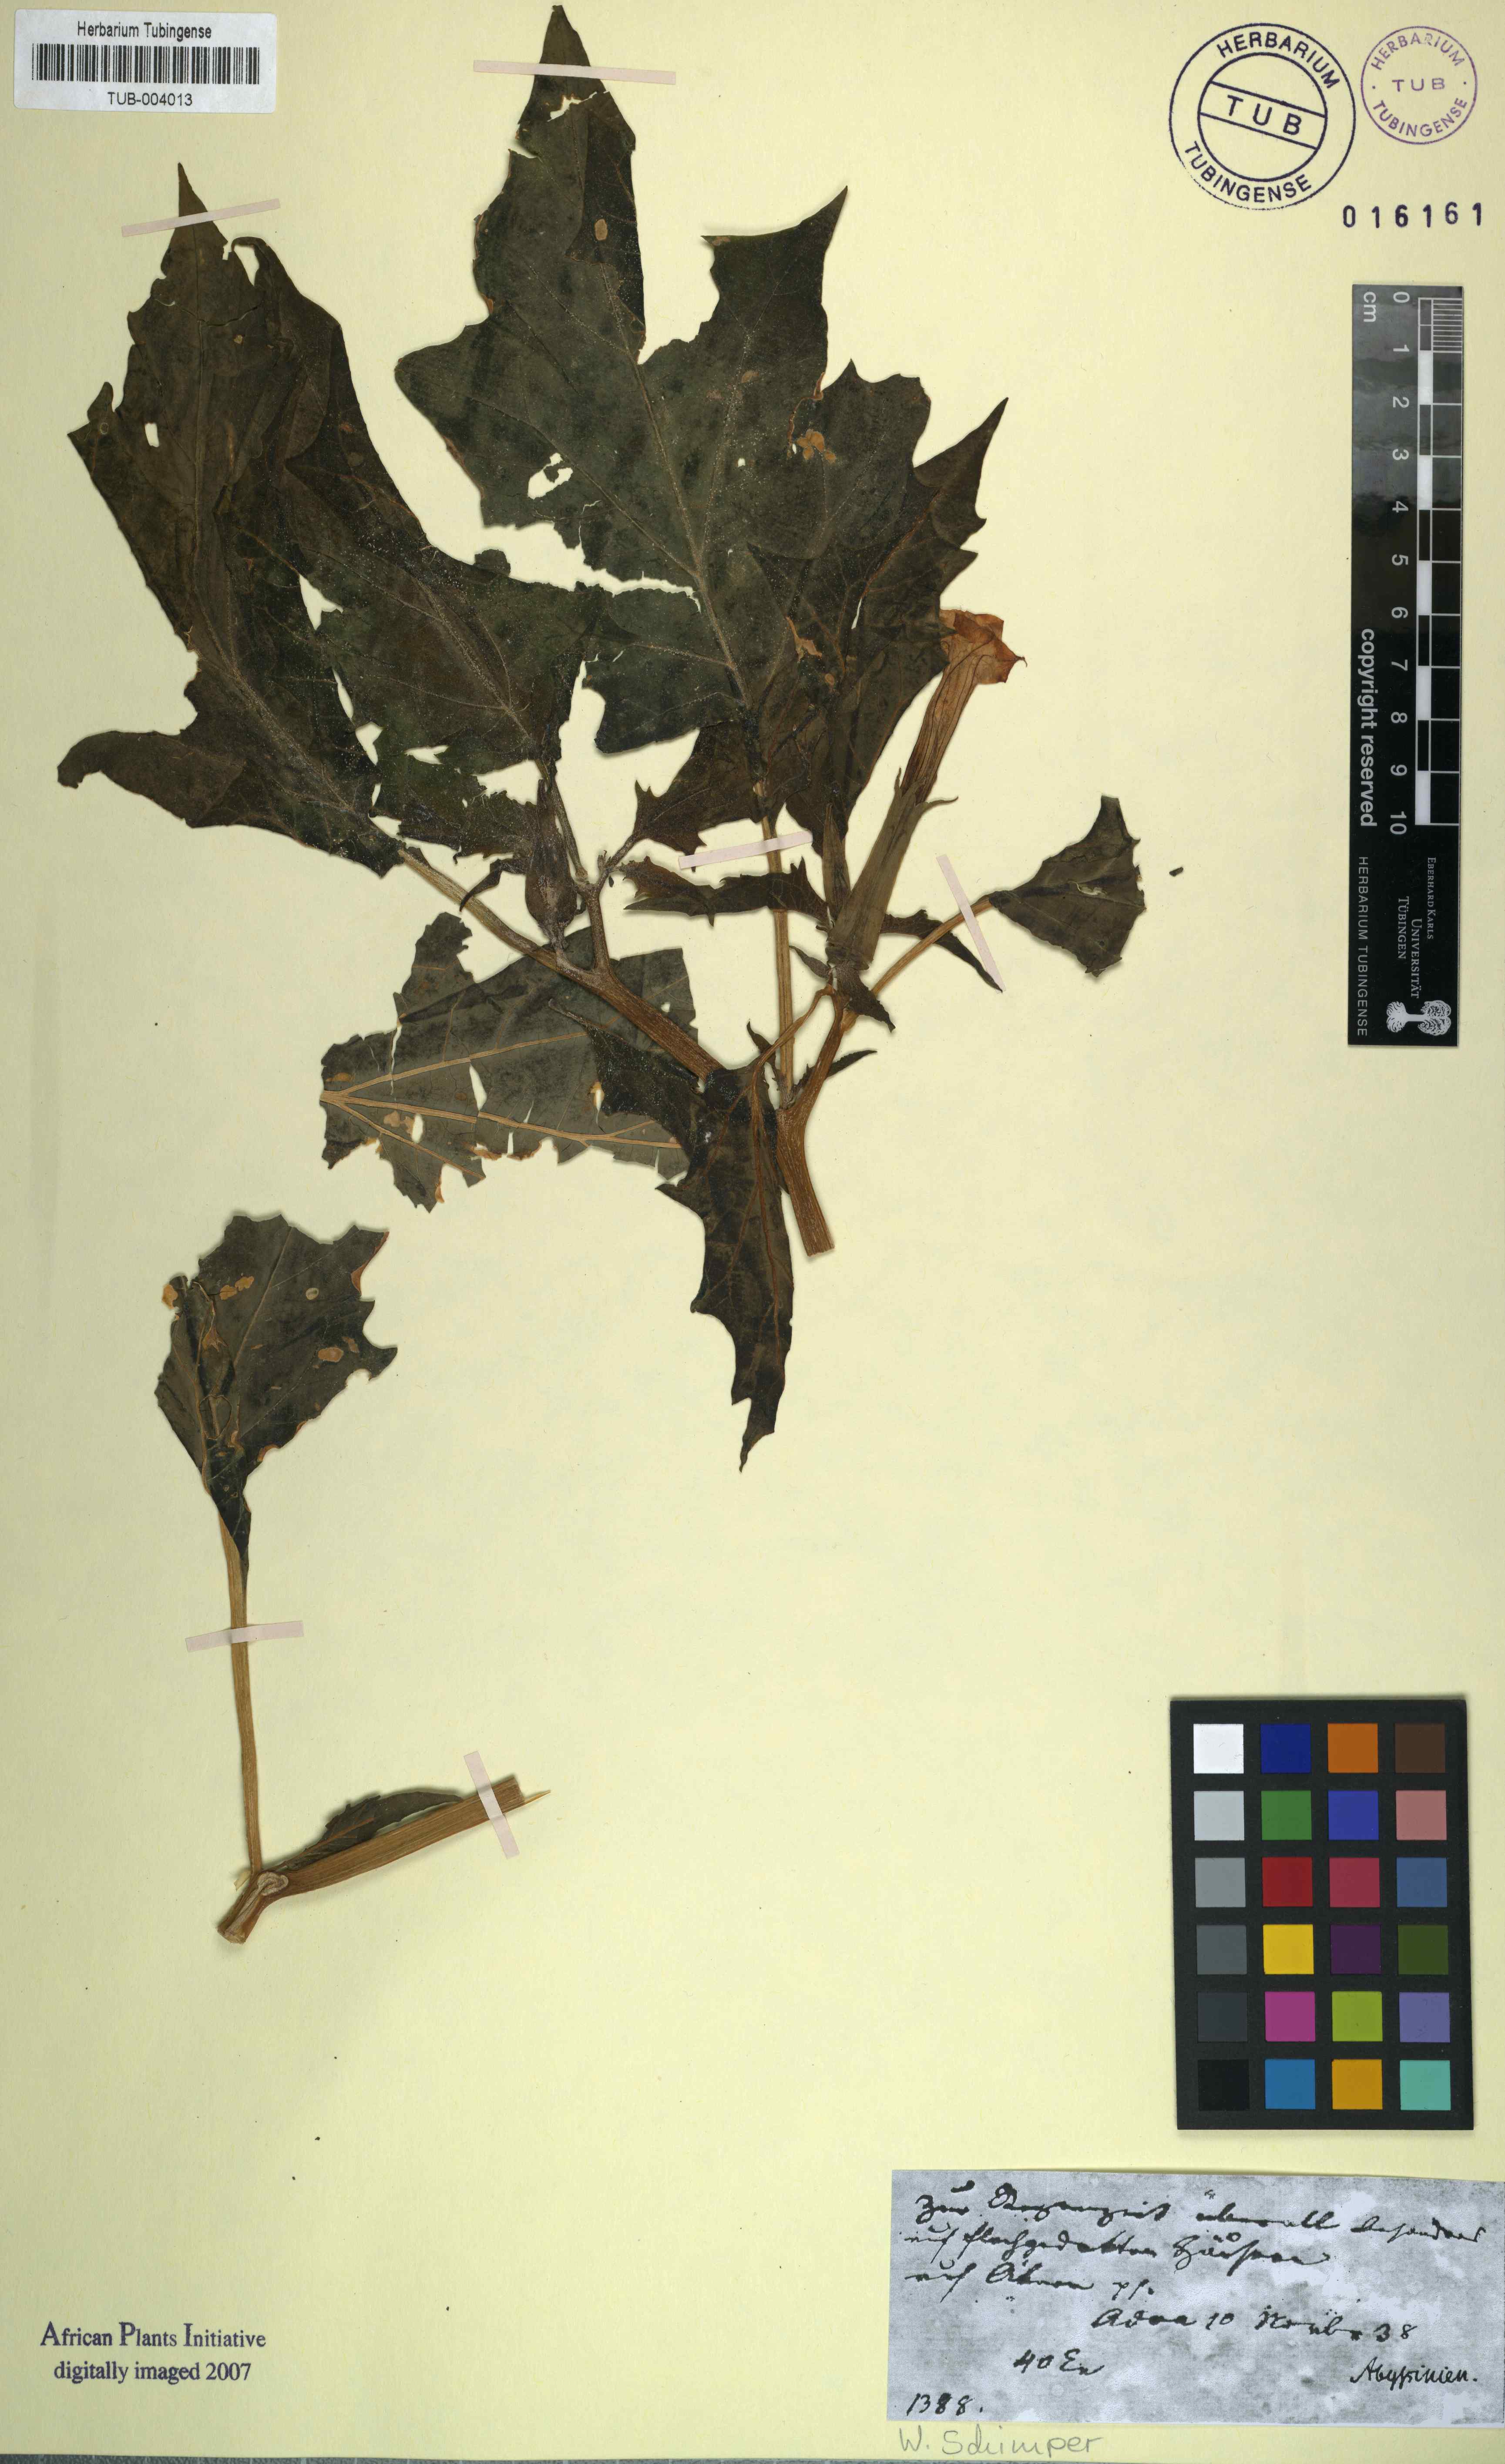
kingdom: Plantae
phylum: Tracheophyta
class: Magnoliopsida
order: Solanales
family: Solanaceae
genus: Datura
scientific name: Datura
